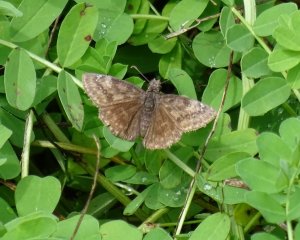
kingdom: Animalia
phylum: Arthropoda
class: Insecta
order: Lepidoptera
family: Hesperiidae
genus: Gesta
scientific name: Gesta
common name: Wild Indigo Duskywing
